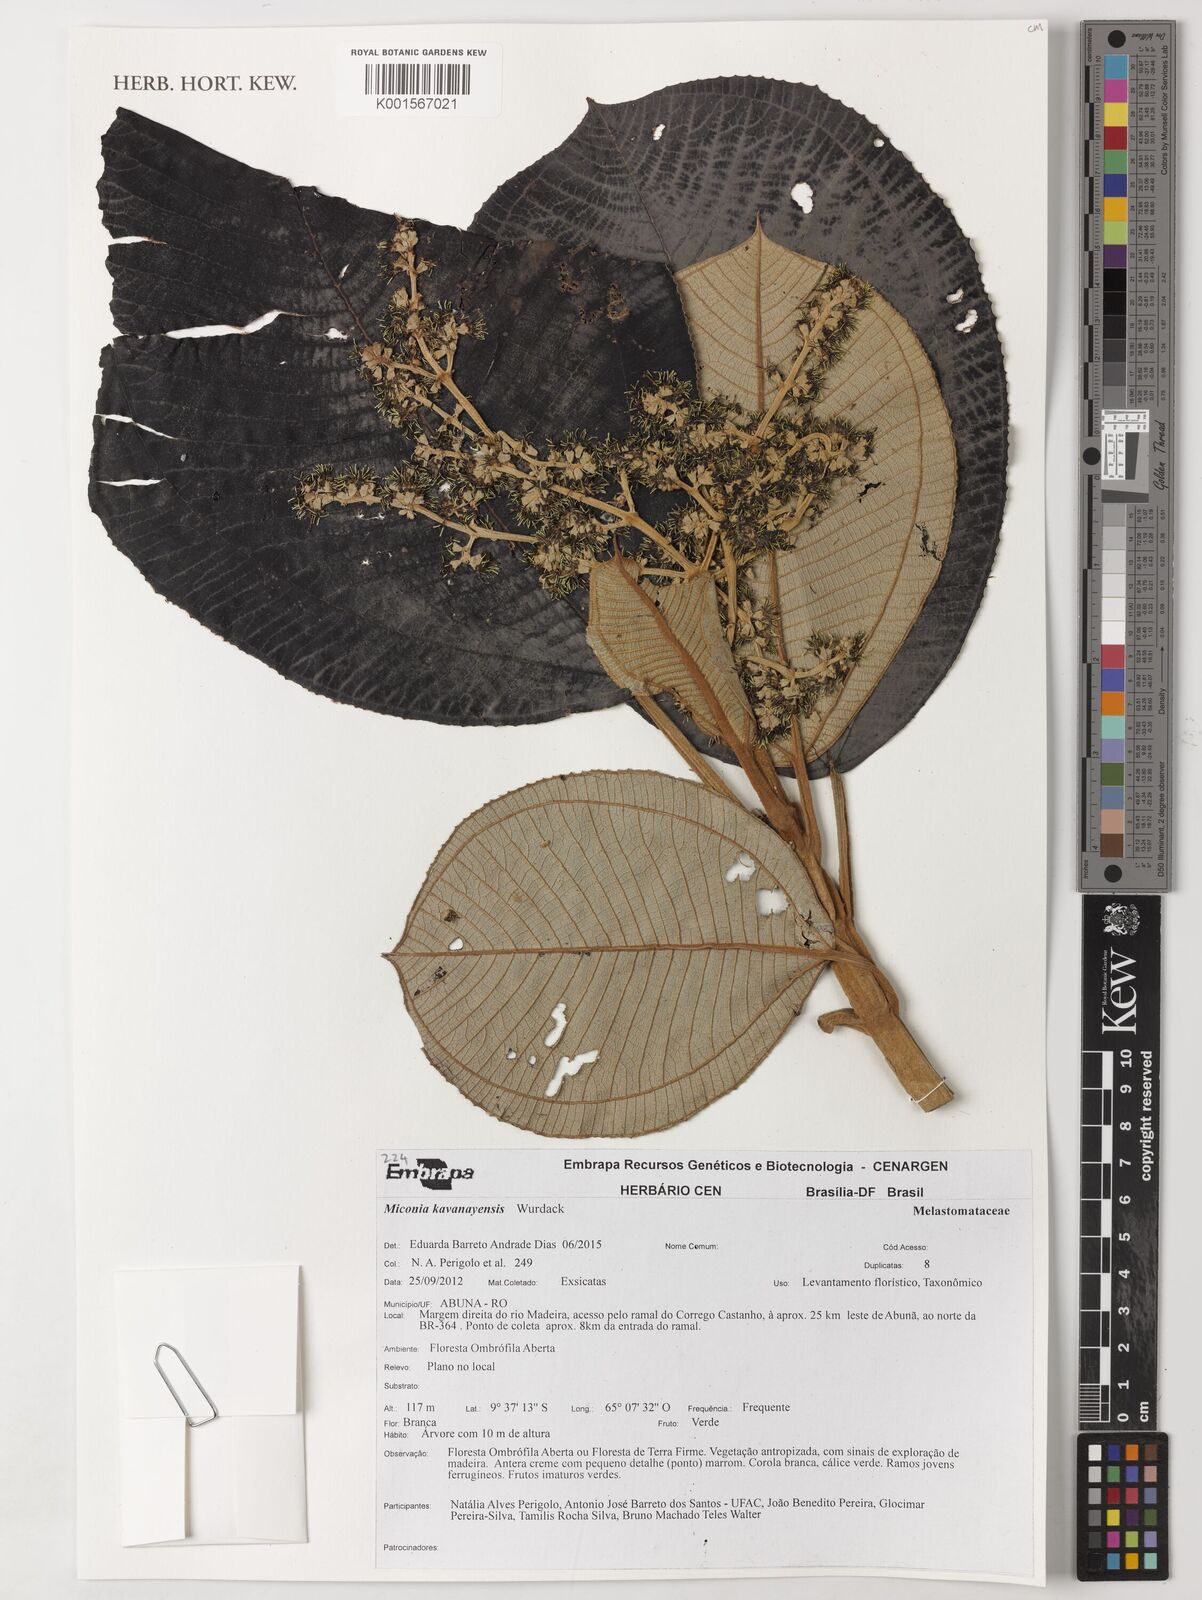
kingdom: Plantae
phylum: Tracheophyta
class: Magnoliopsida
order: Myrtales
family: Melastomataceae
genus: Miconia
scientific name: Miconia kavanayensis
